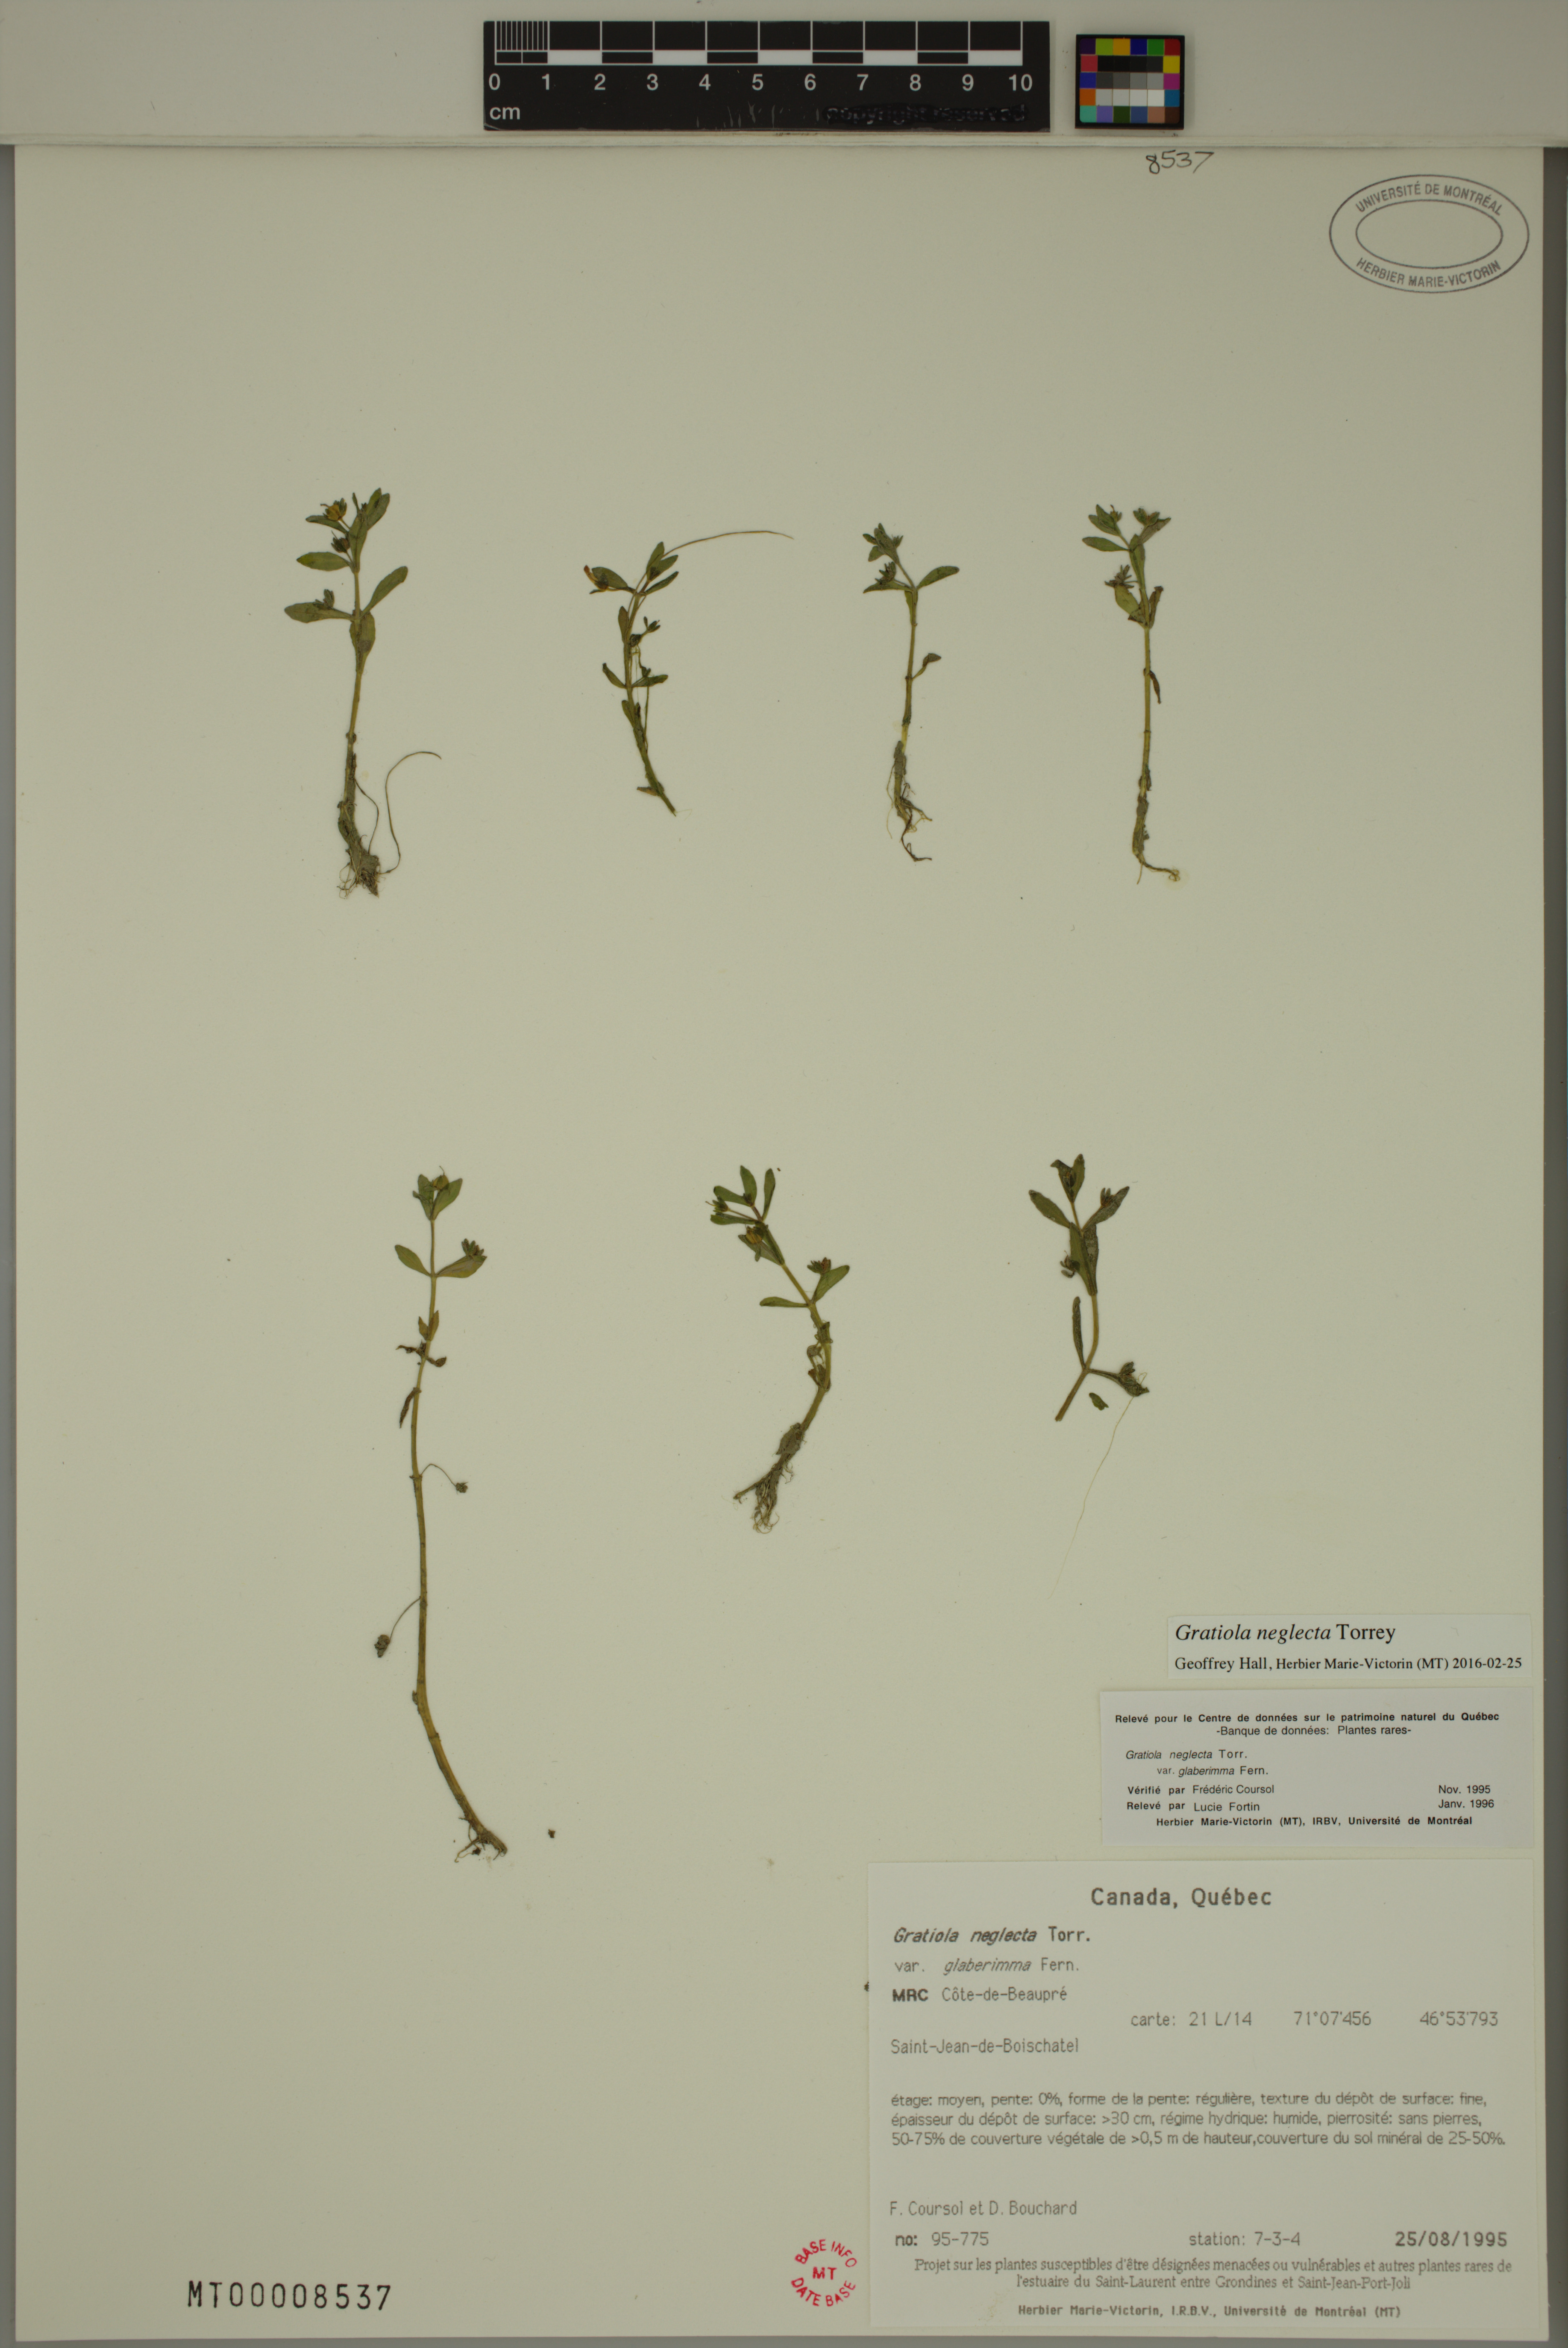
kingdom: Plantae
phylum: Tracheophyta
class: Magnoliopsida
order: Lamiales
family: Plantaginaceae
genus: Gratiola
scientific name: Gratiola neglecta
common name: American hedge-hyssop
